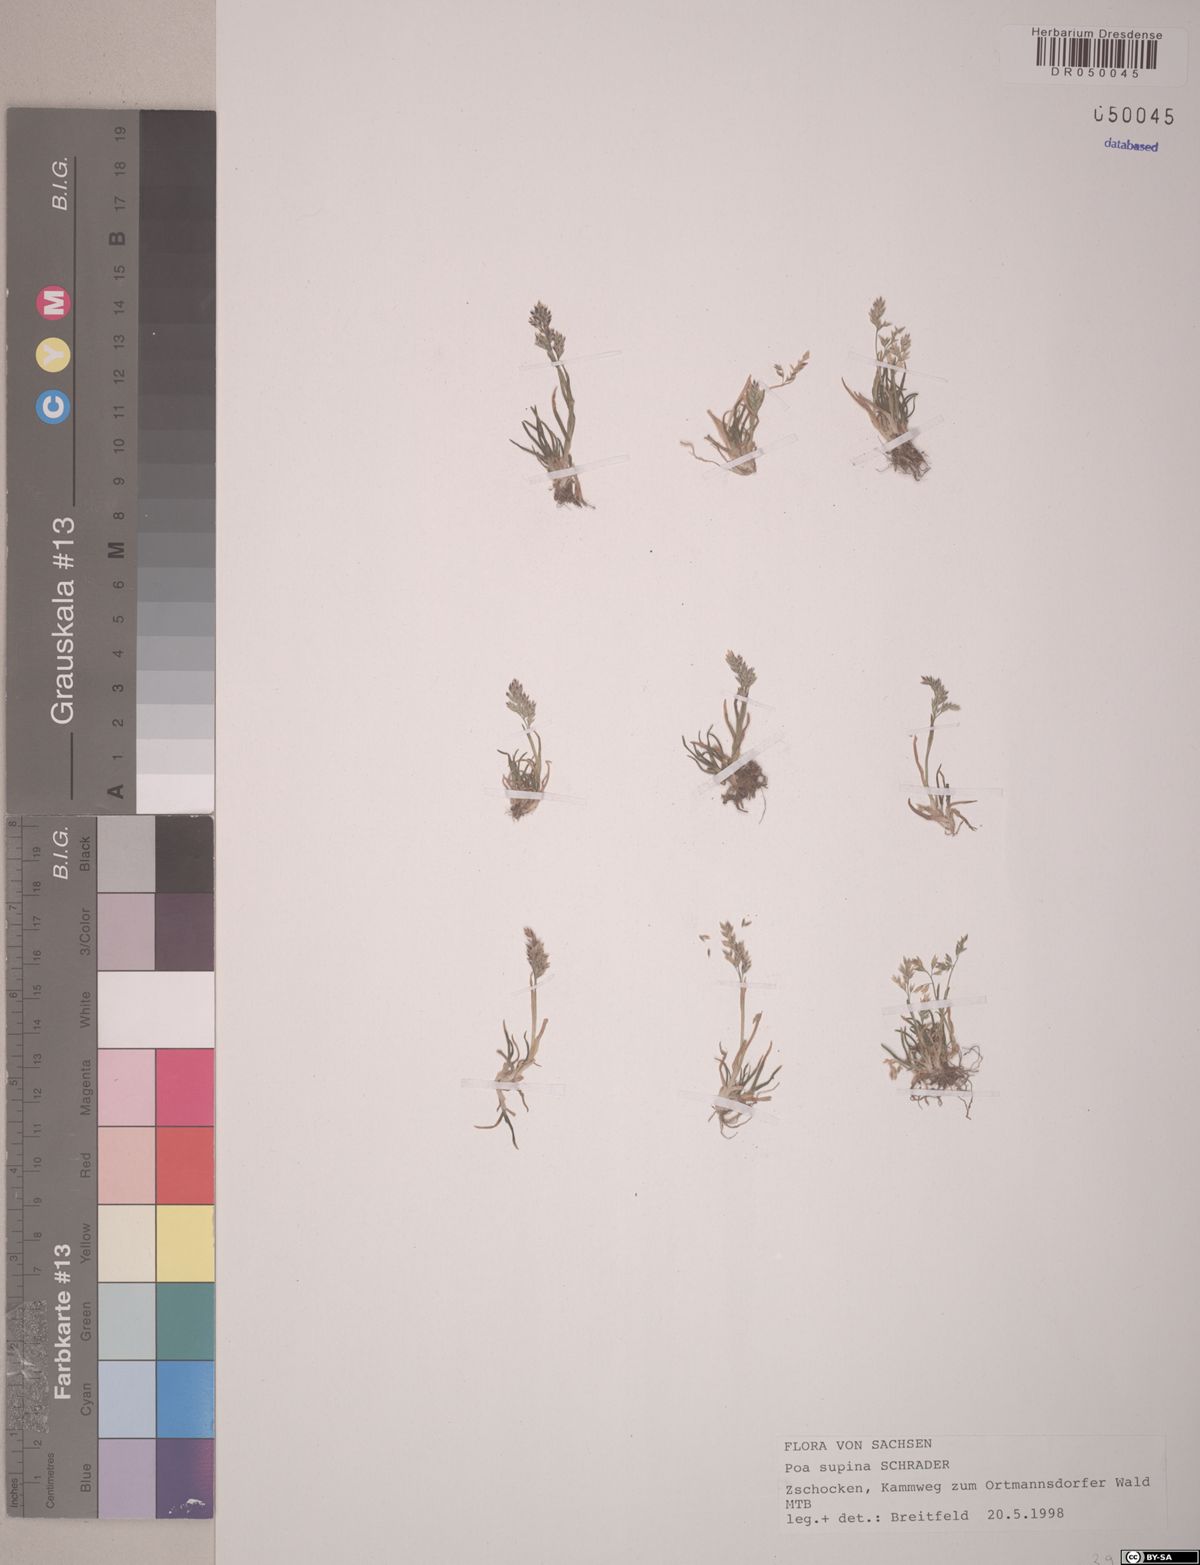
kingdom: Plantae
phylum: Tracheophyta
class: Liliopsida
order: Poales
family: Poaceae
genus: Poa
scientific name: Poa supina
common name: Supina bluegrass
